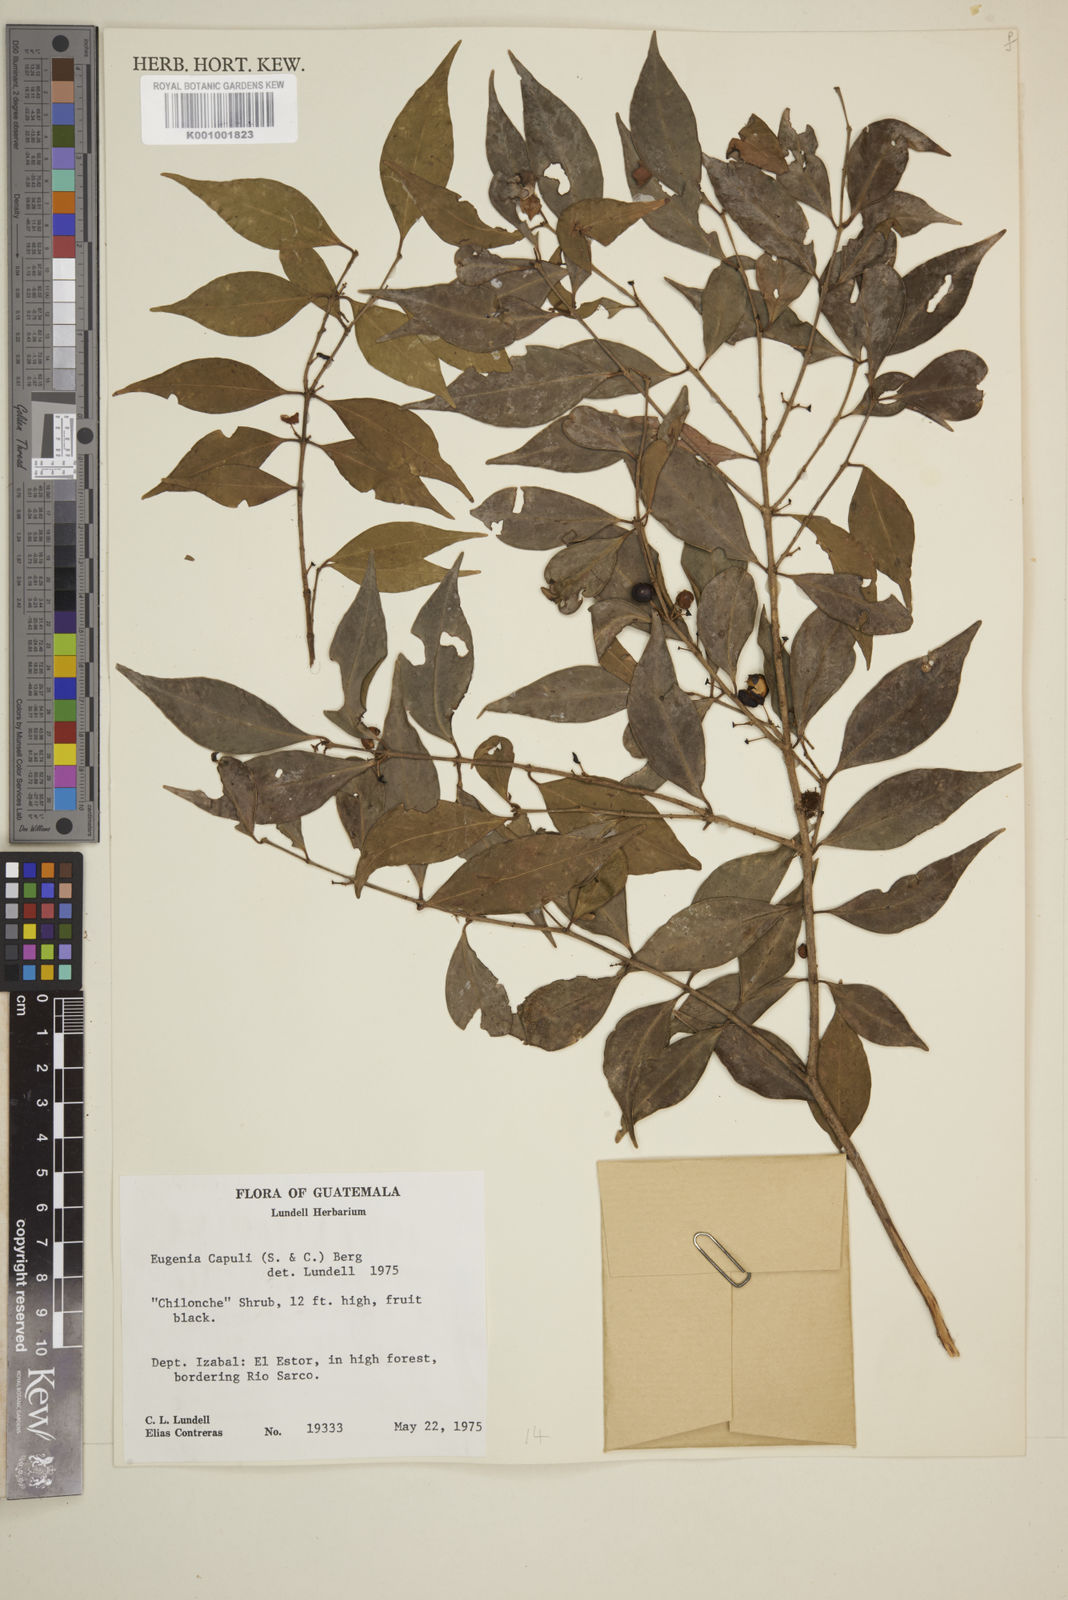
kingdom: Plantae
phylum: Tracheophyta
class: Magnoliopsida
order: Myrtales
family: Myrtaceae
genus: Eugenia
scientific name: Eugenia capuli
